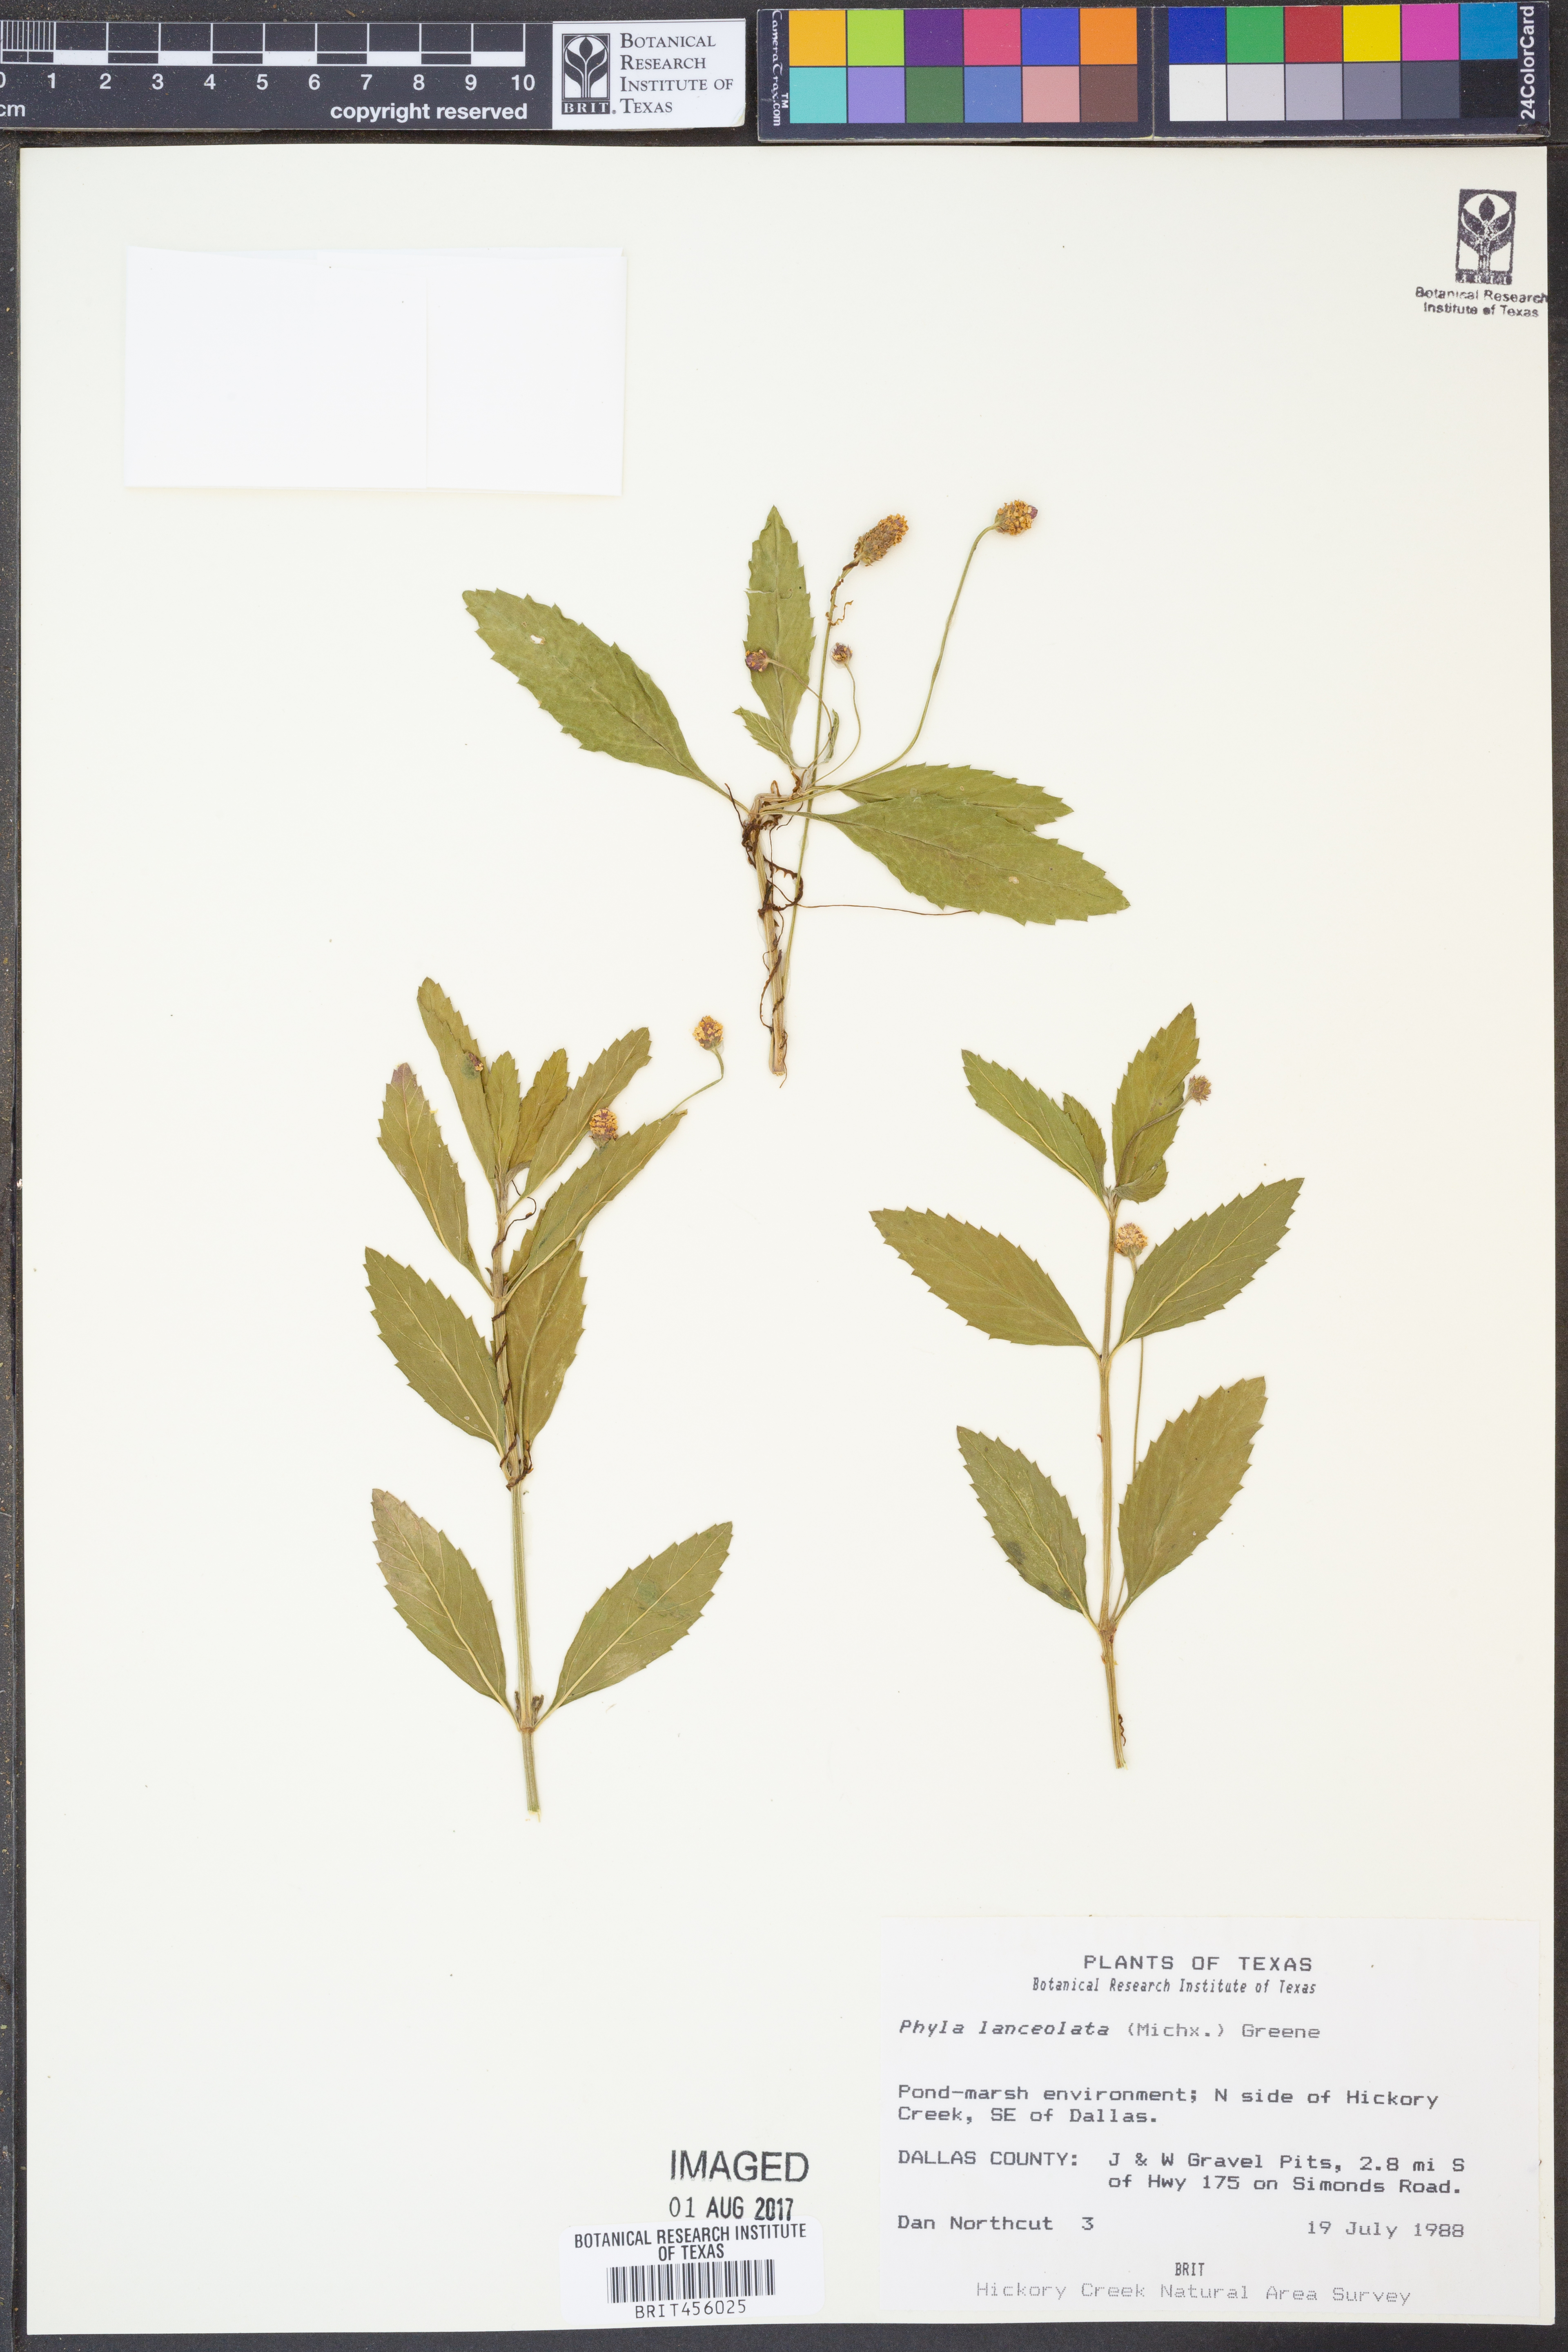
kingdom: Plantae
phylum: Tracheophyta
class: Magnoliopsida
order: Lamiales
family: Verbenaceae
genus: Phyla
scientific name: Phyla lanceolata
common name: Northern fogfruit
